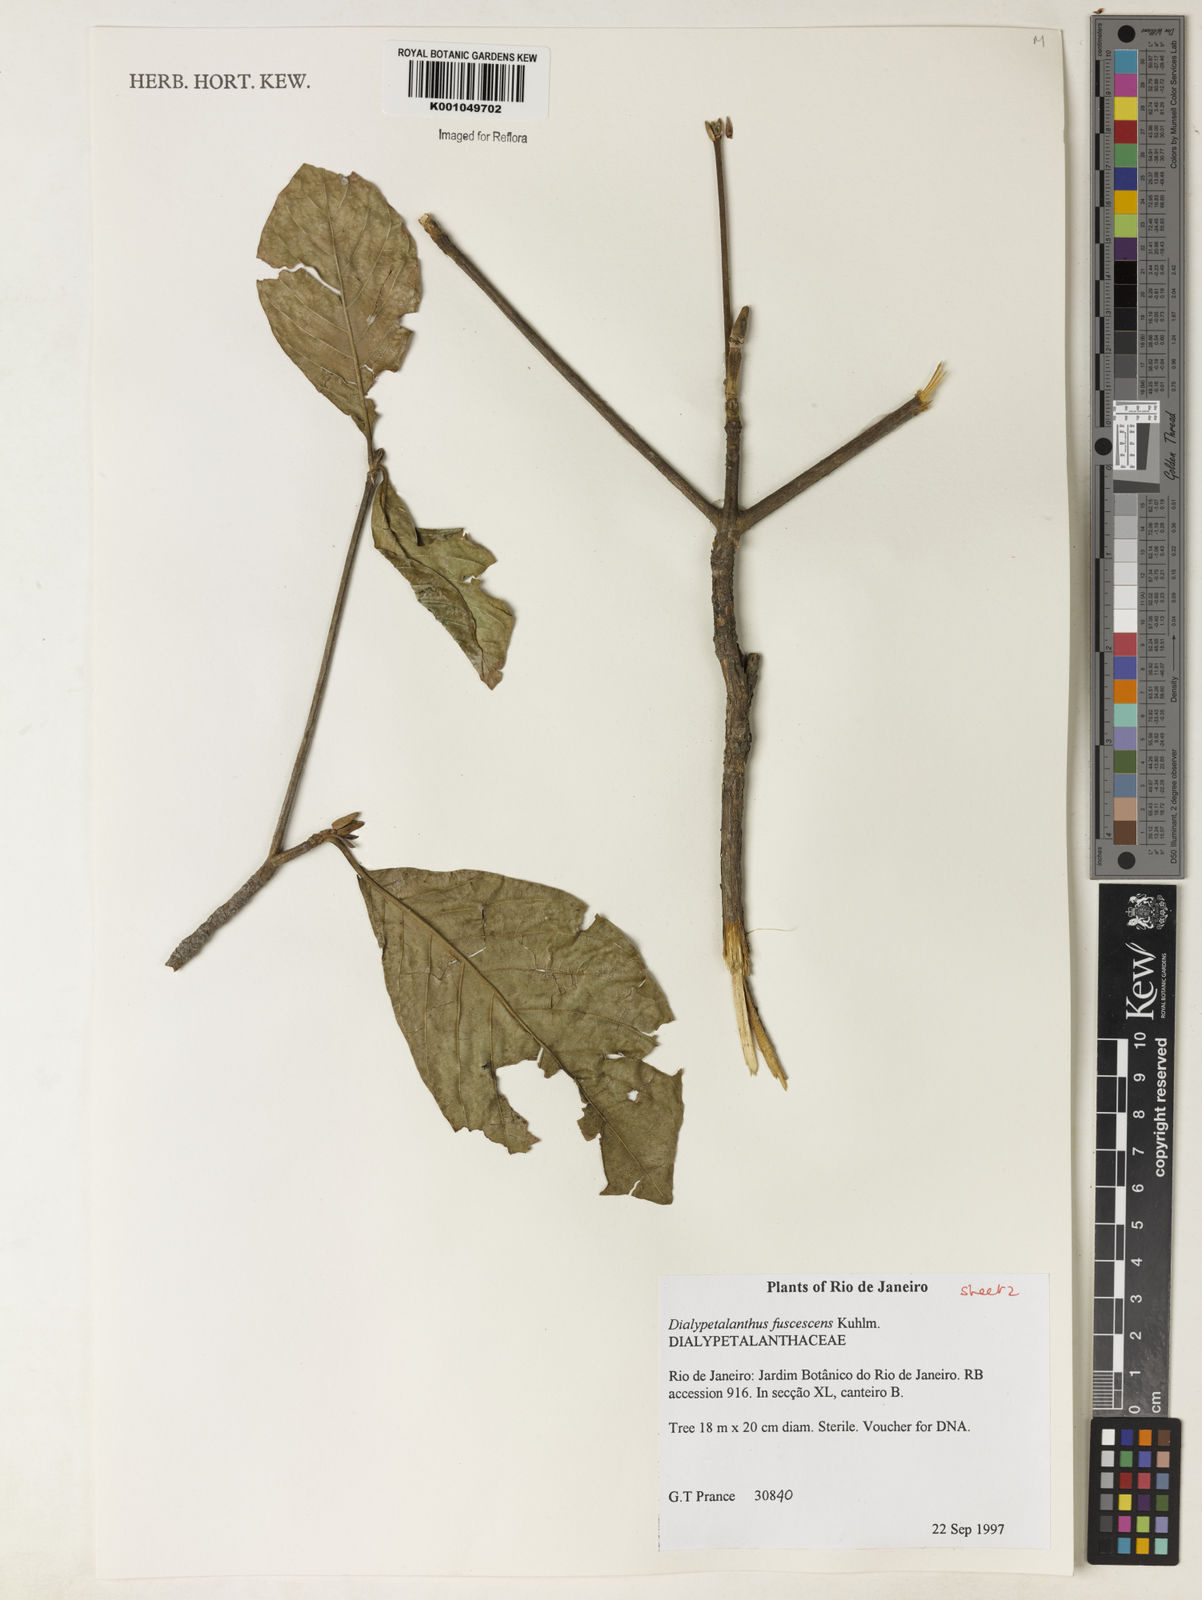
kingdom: Plantae
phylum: Tracheophyta
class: Magnoliopsida
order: Gentianales
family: Rubiaceae
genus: Dialypetalanthus
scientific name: Dialypetalanthus fuscescens
